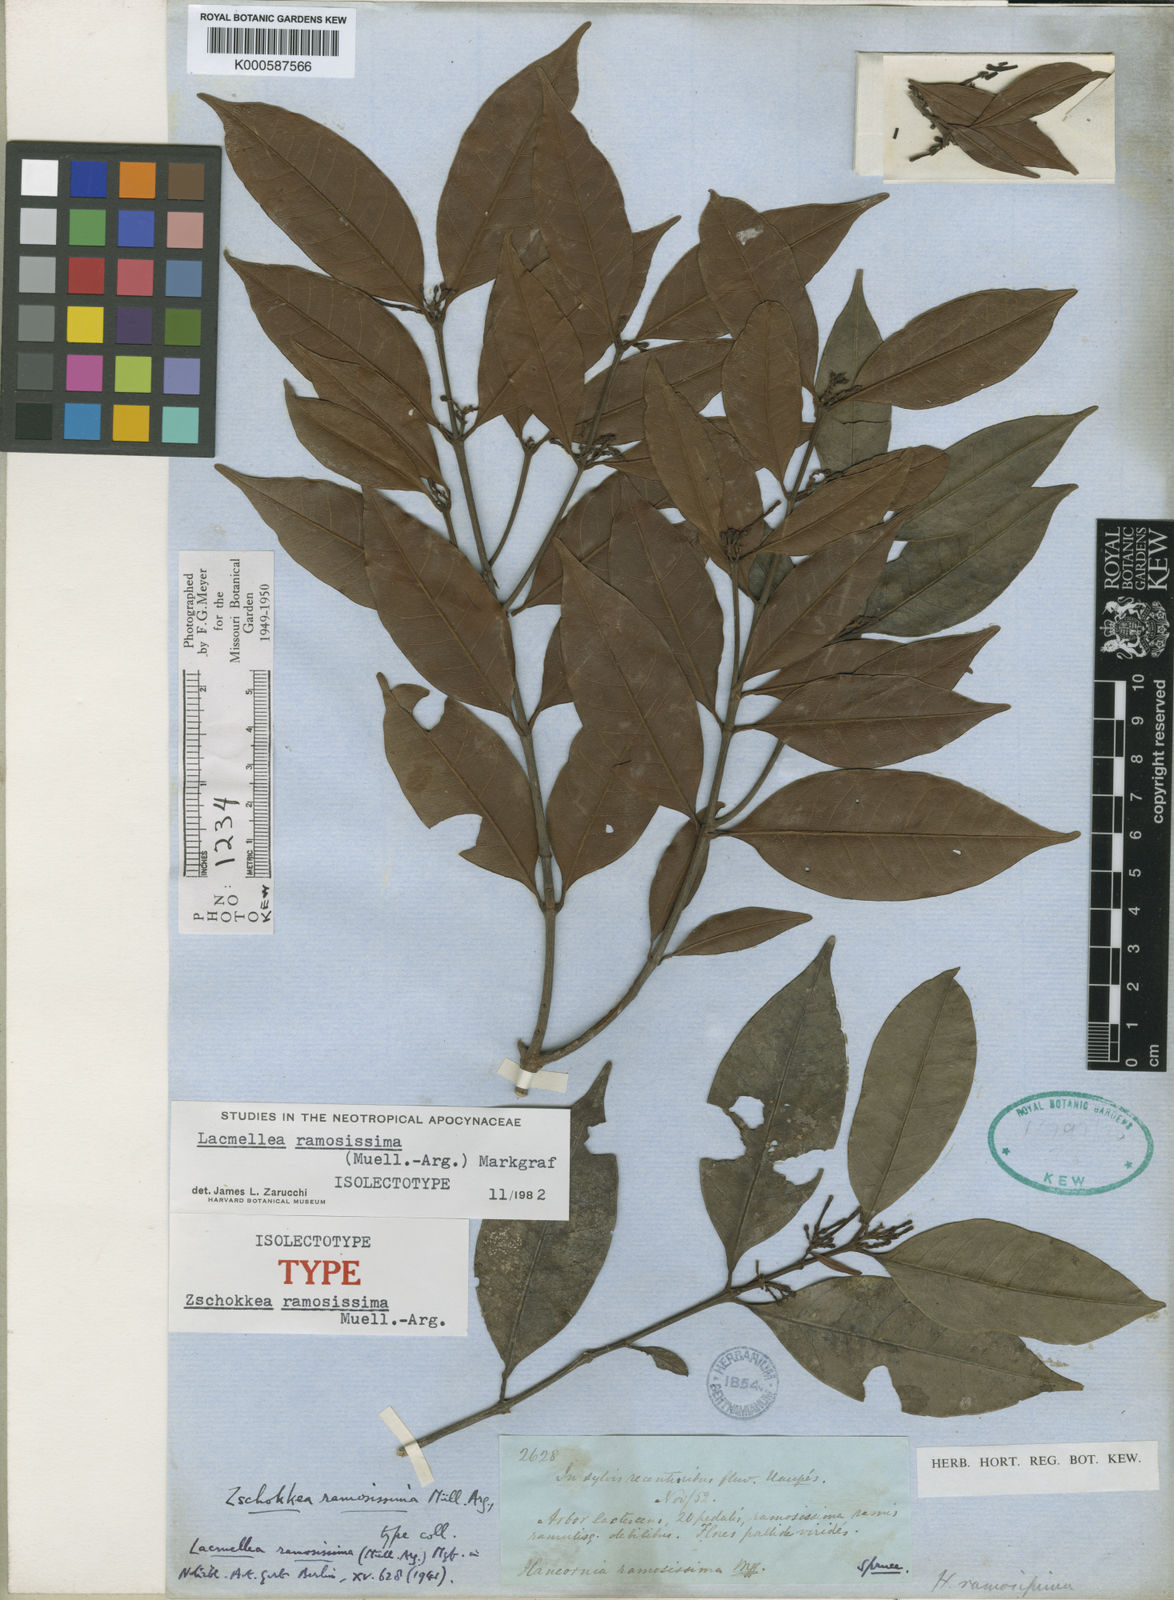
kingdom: Plantae
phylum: Tracheophyta
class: Magnoliopsida
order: Gentianales
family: Apocynaceae
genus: Lacmellea
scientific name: Lacmellea
